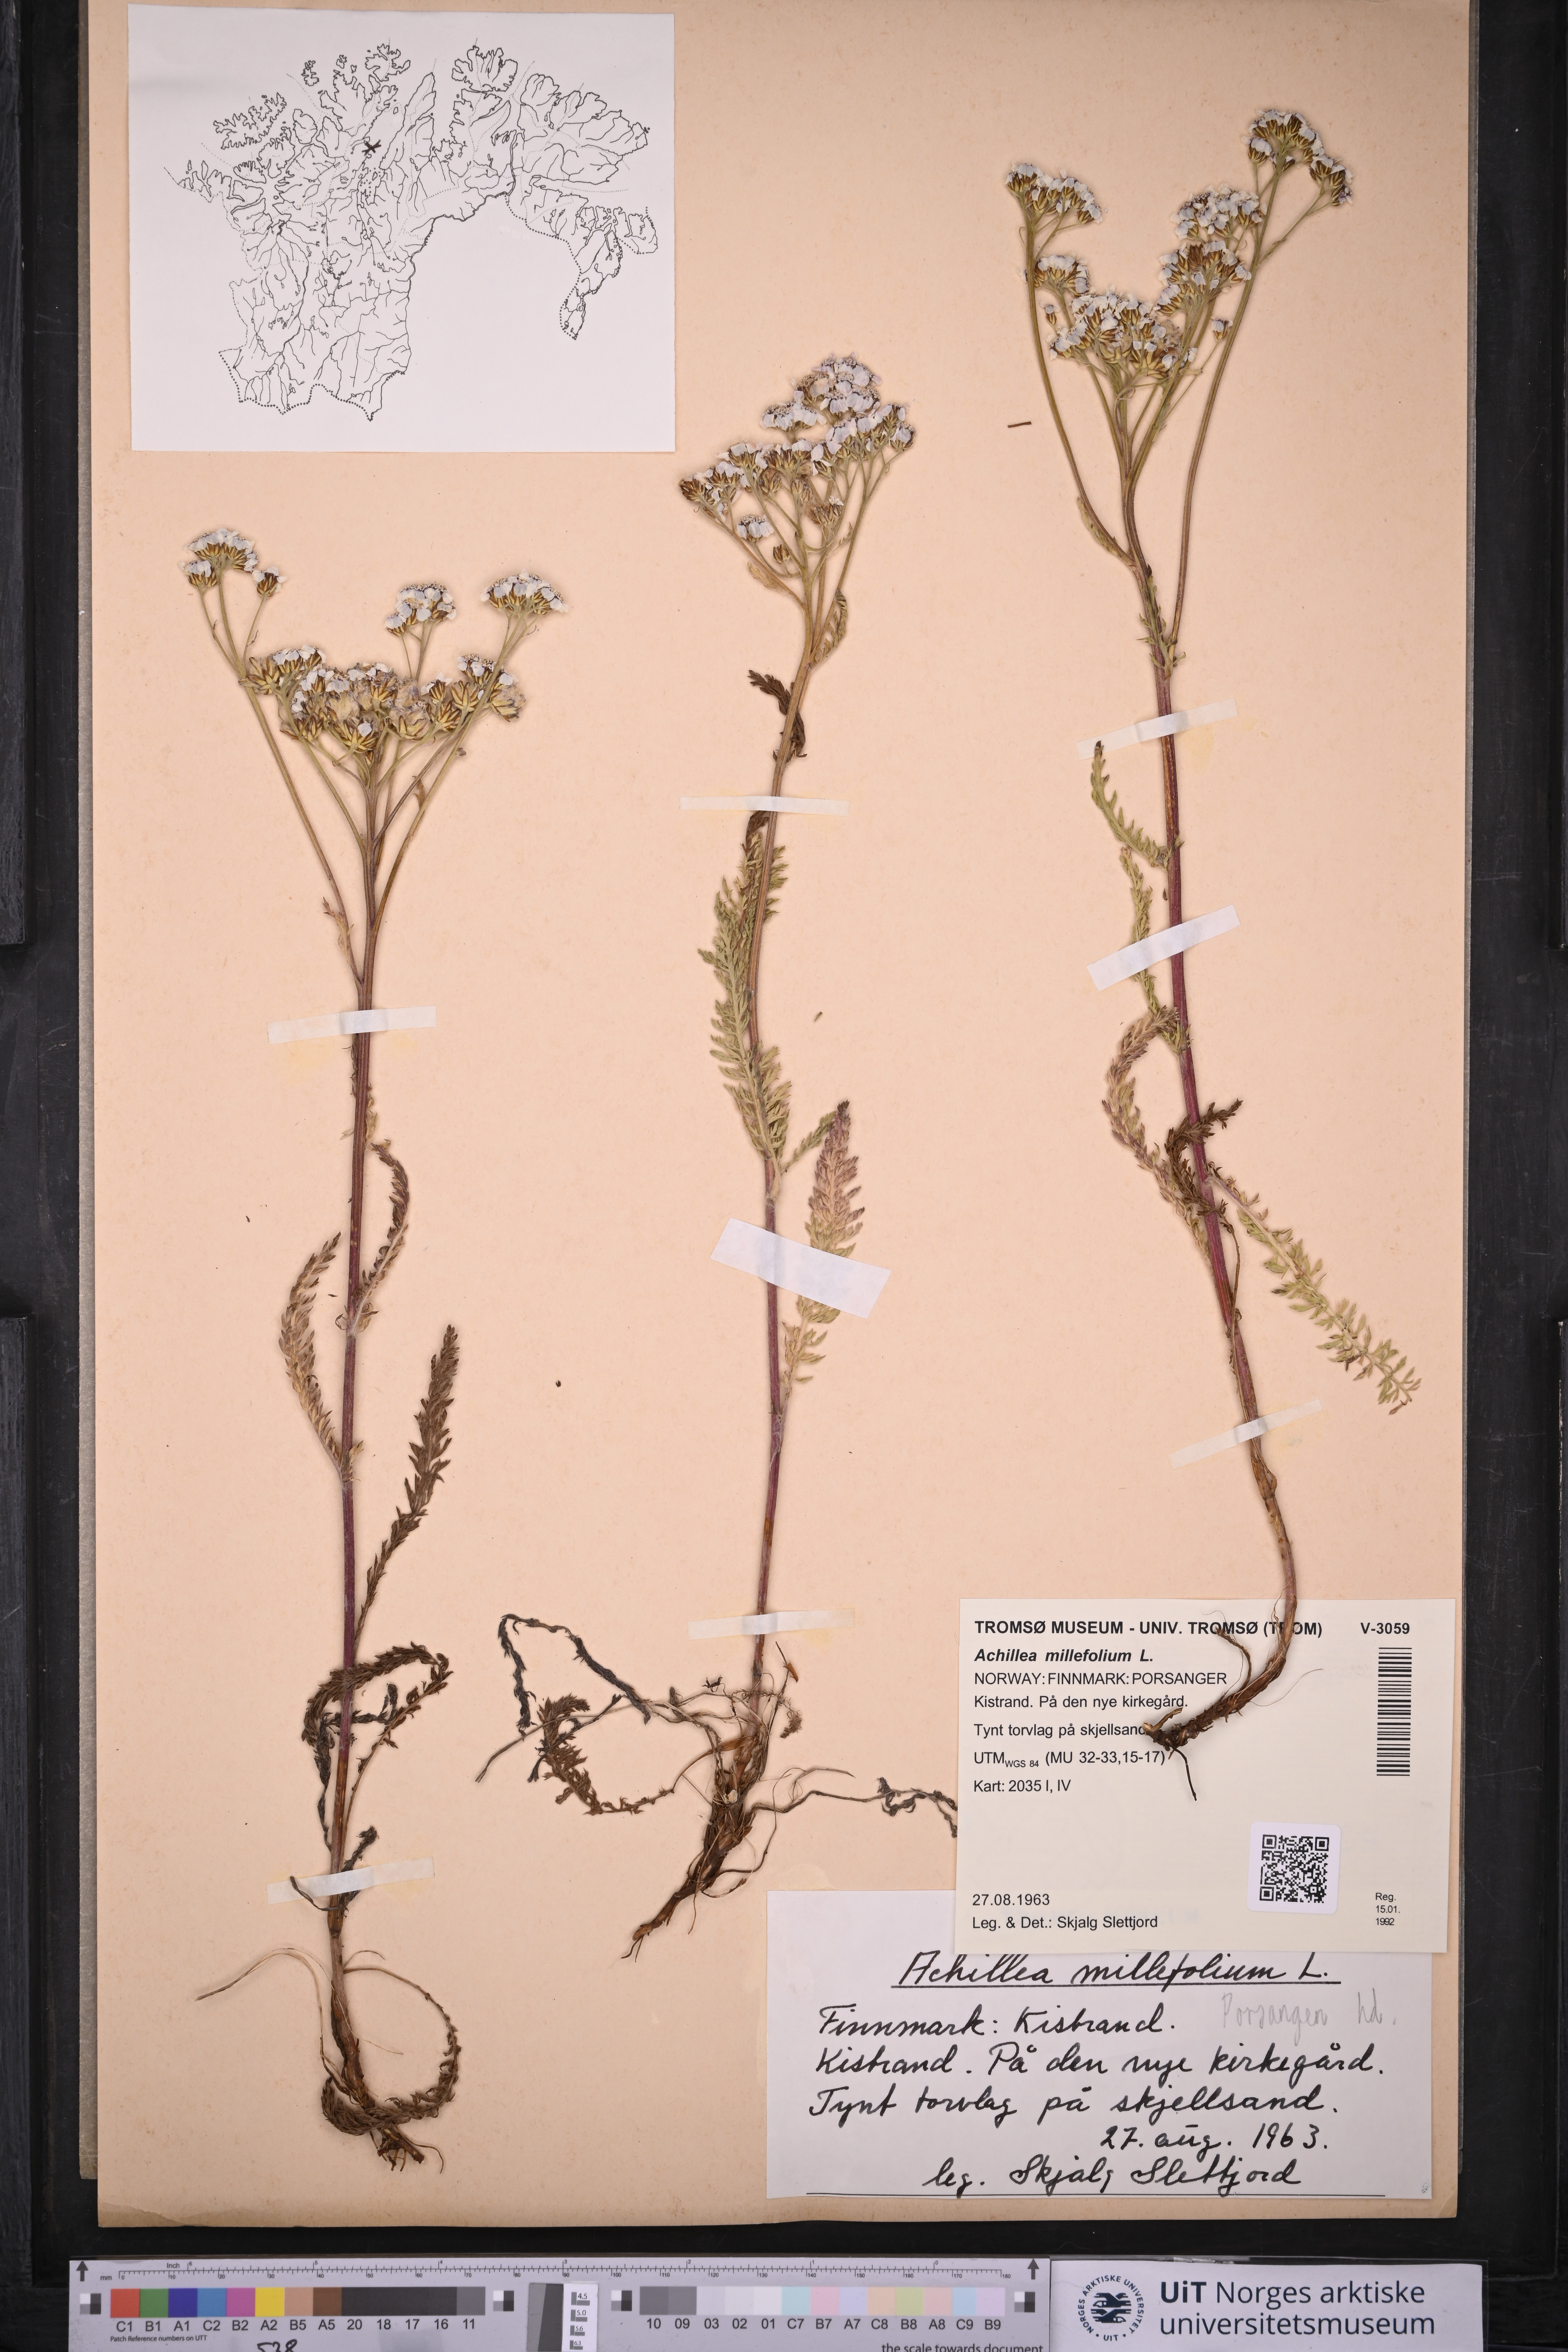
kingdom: Plantae
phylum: Tracheophyta
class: Magnoliopsida
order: Asterales
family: Asteraceae
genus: Achillea
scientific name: Achillea millefolium
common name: Yarrow
